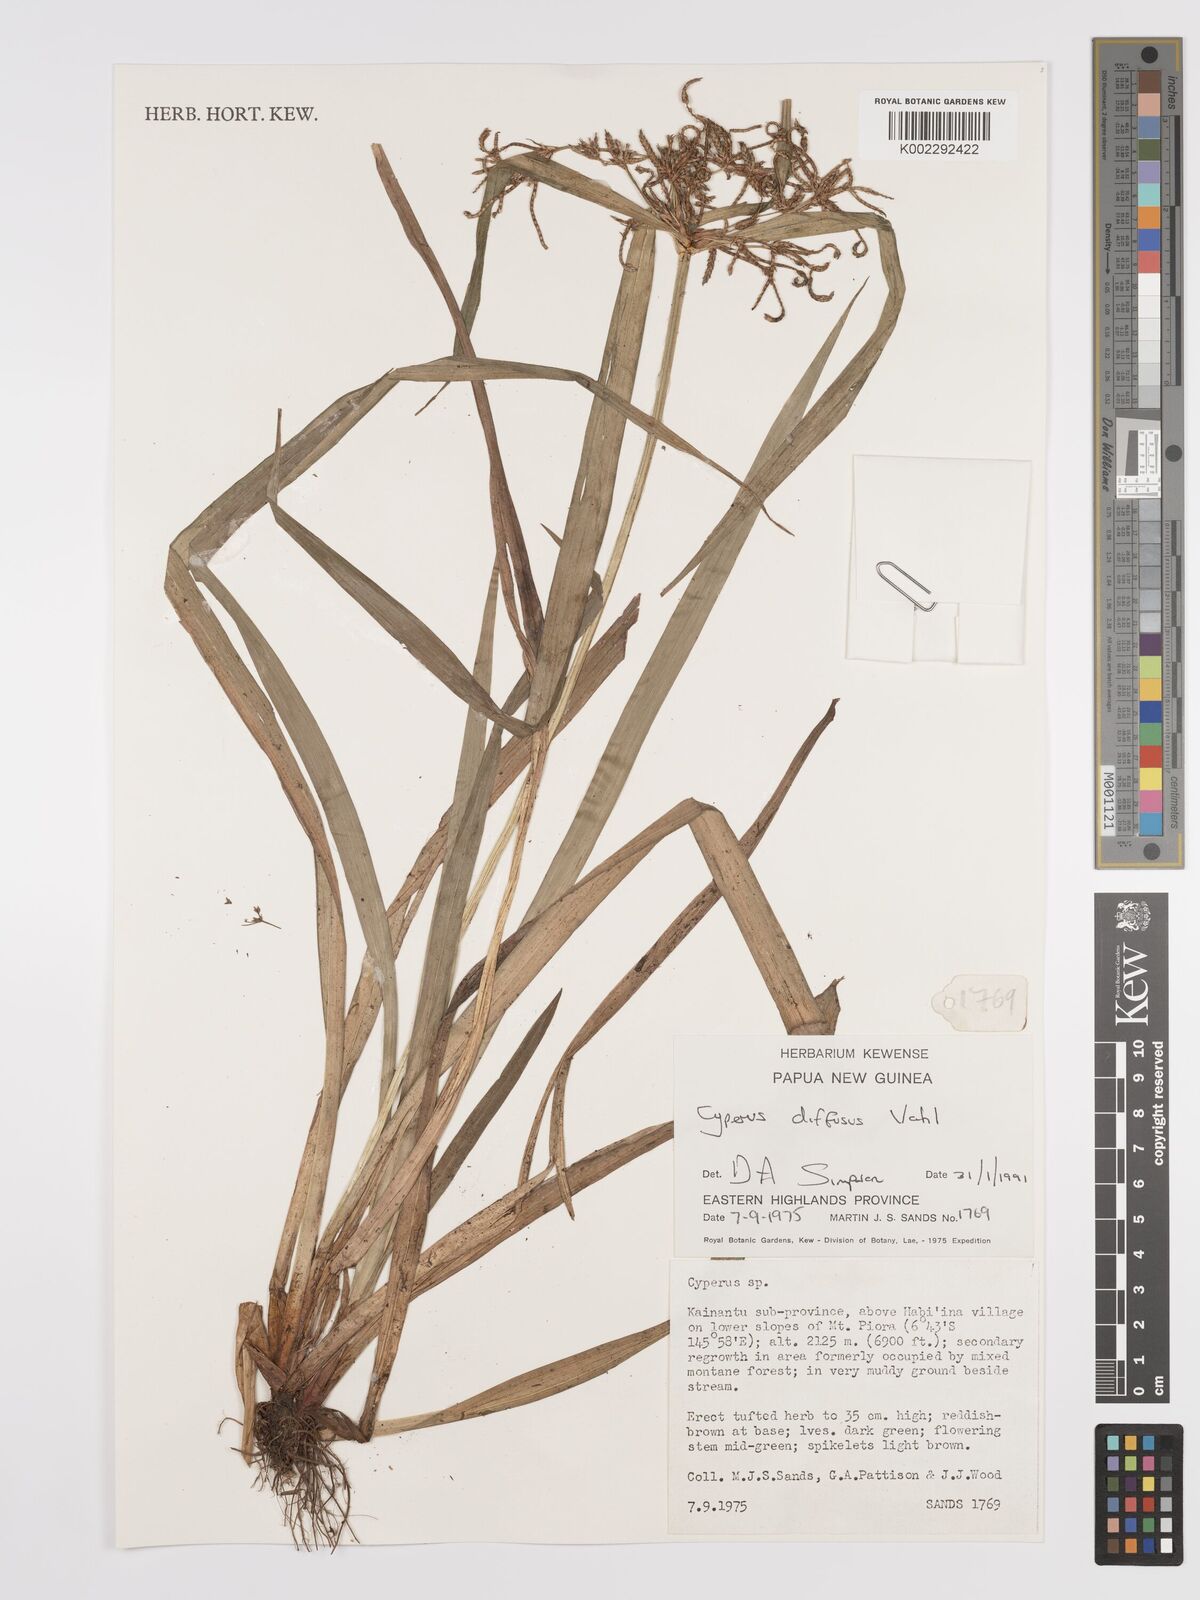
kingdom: Plantae
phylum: Tracheophyta
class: Liliopsida
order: Poales
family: Cyperaceae
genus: Cyperus
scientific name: Cyperus diffusus
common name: Dwarf umbrella grass
